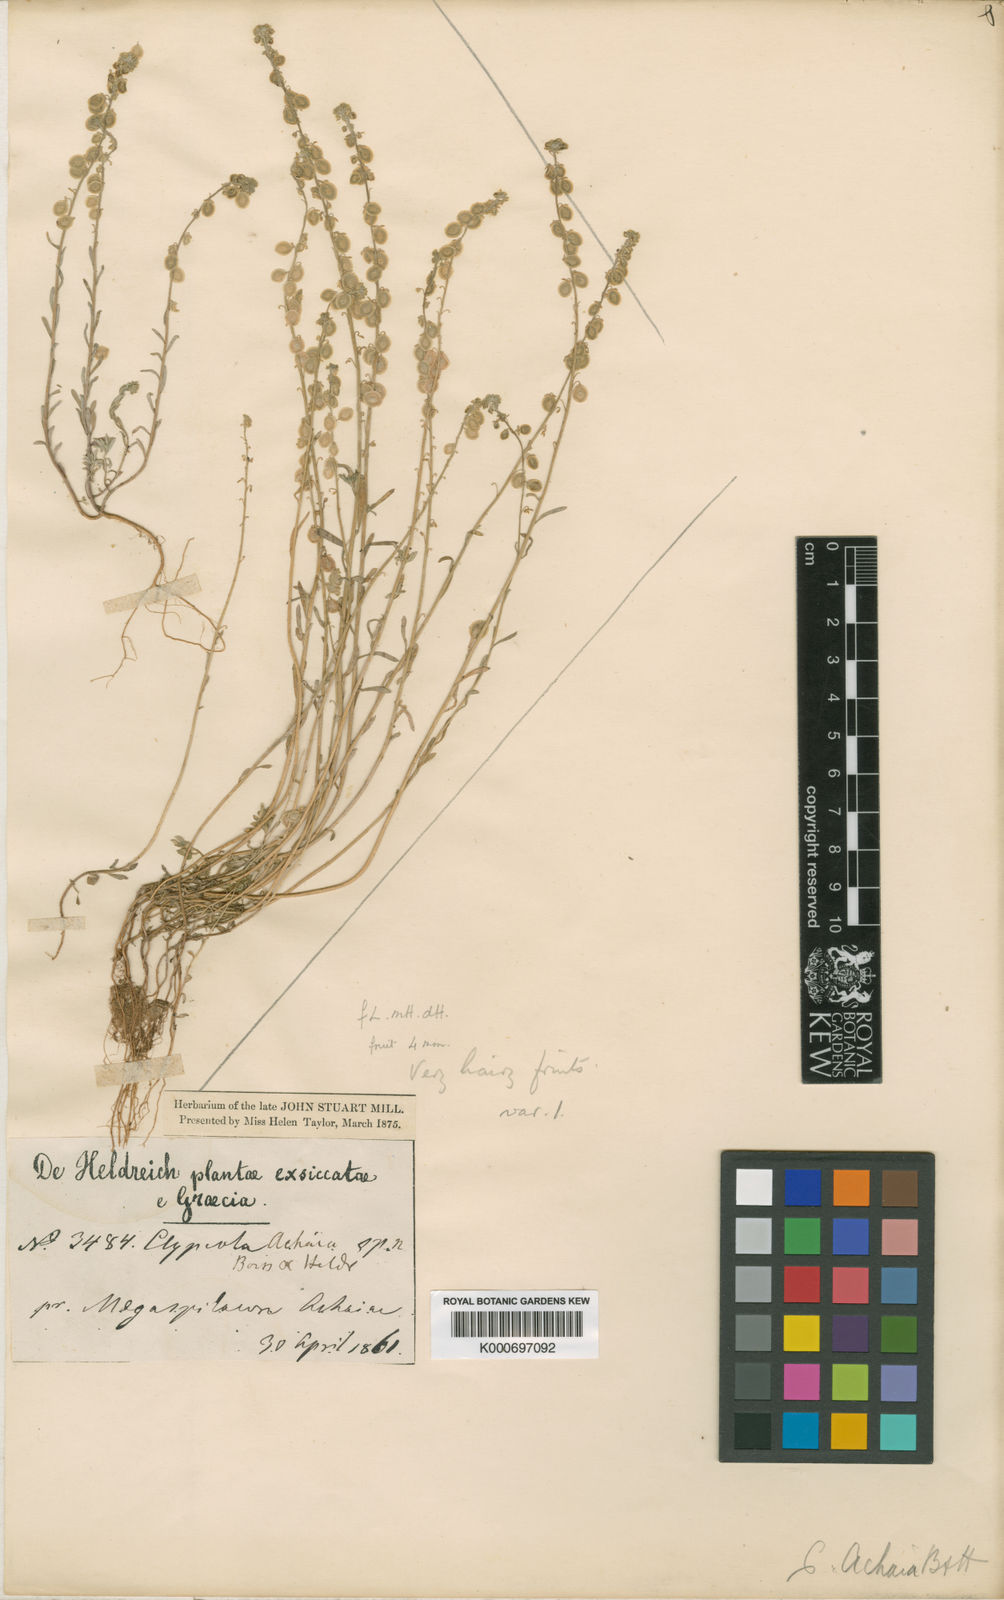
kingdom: Plantae
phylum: Tracheophyta
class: Magnoliopsida
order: Brassicales
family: Brassicaceae
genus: Clypeola
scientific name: Clypeola jonthlaspi
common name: Disk cress
